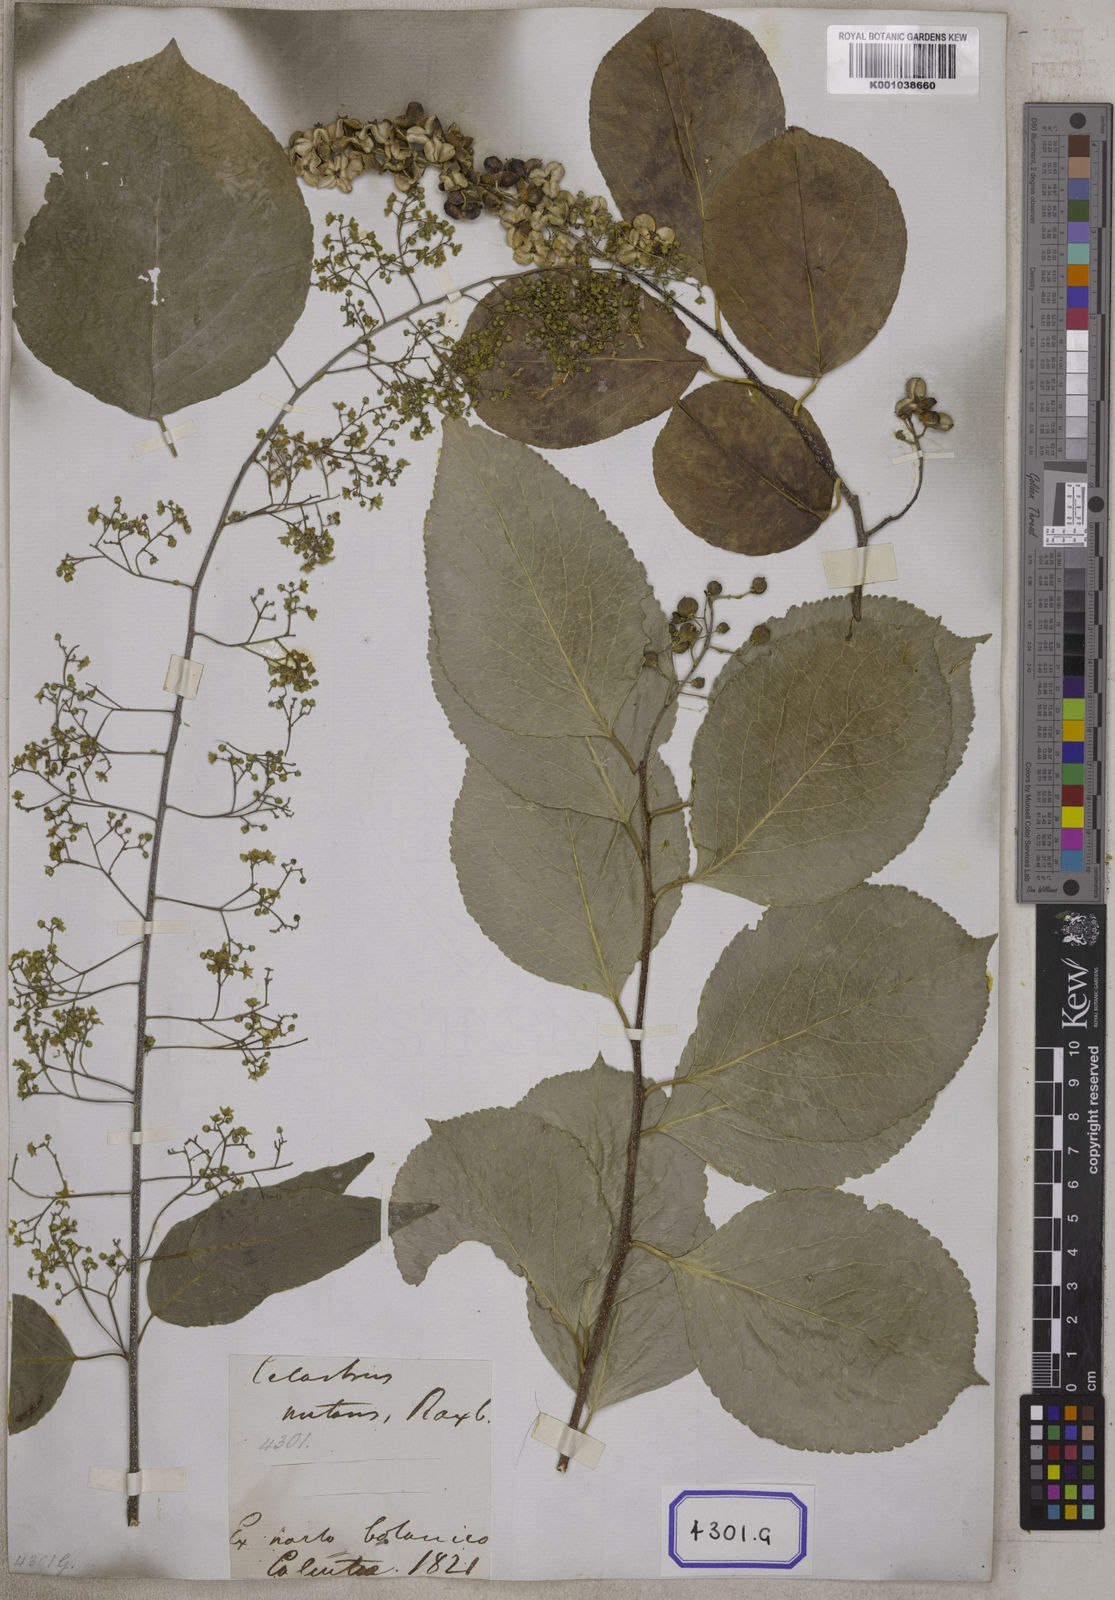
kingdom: Plantae
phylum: Tracheophyta
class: Magnoliopsida
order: Celastrales
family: Celastraceae
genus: Celastrus
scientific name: Celastrus paniculatus
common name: Oriental bittersweet; staff vine
